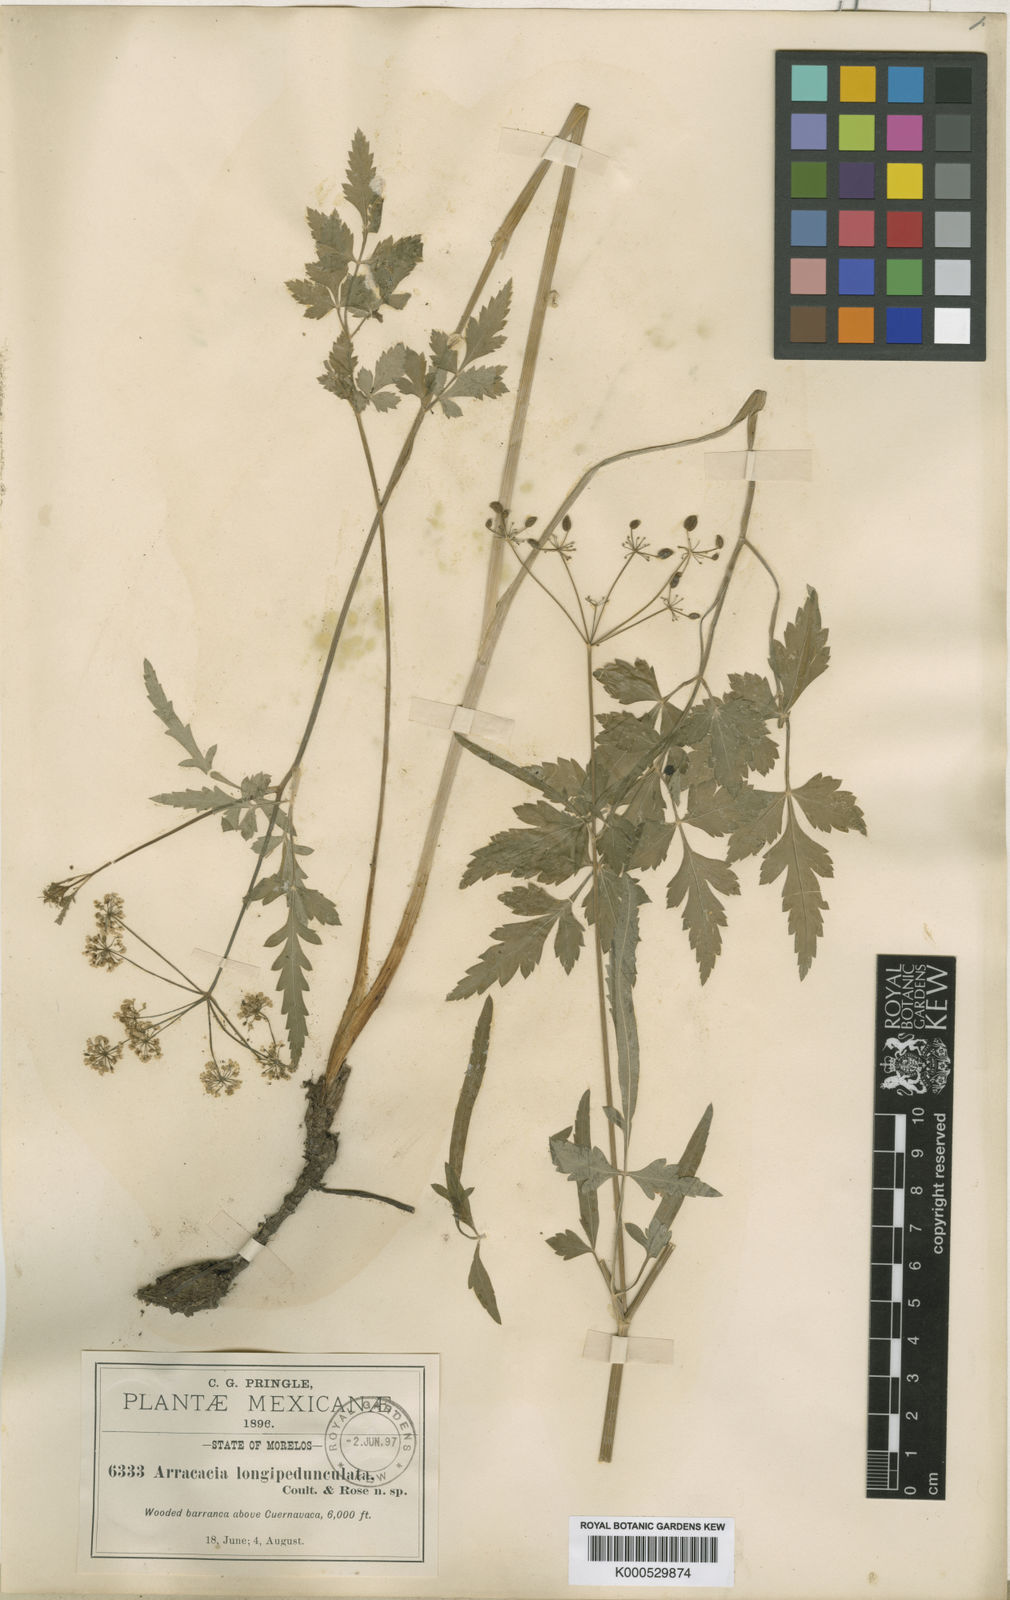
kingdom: Plantae
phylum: Tracheophyta
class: Magnoliopsida
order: Apiales
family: Apiaceae
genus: Arracacia
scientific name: Arracacia longipedunculata
